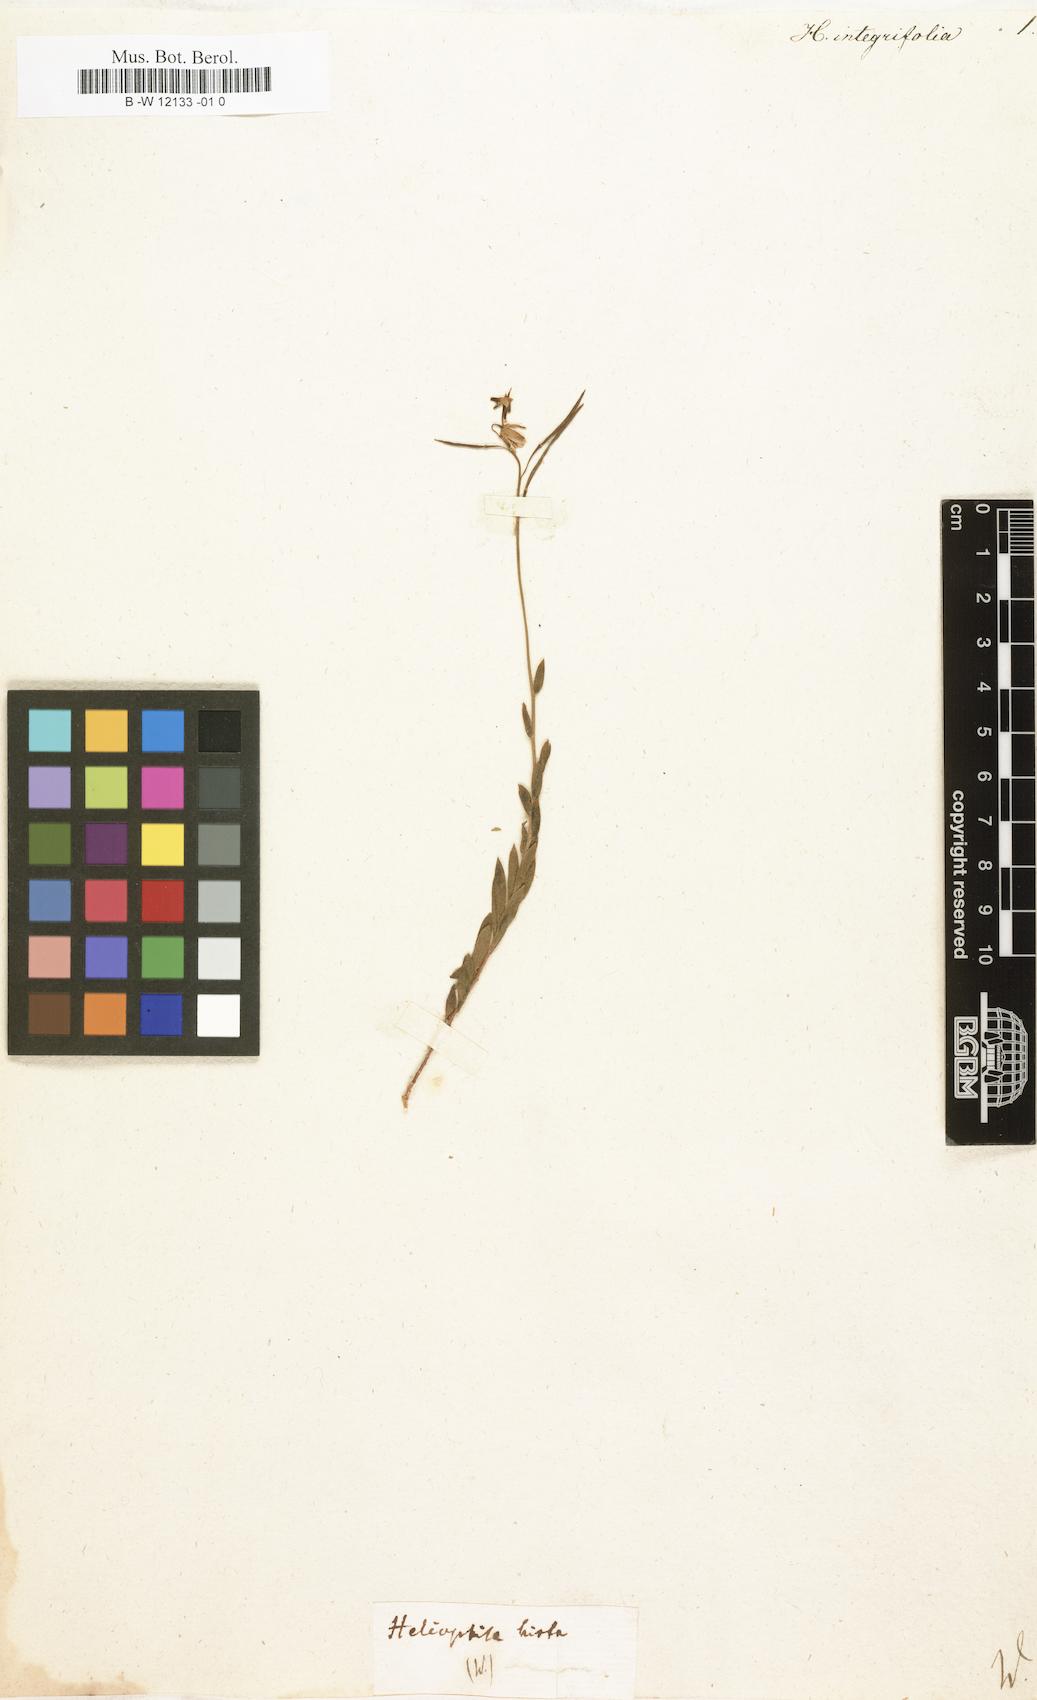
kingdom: Plantae
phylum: Tracheophyta
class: Magnoliopsida
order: Brassicales
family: Brassicaceae
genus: Heliophila
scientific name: Heliophila integrifolia
